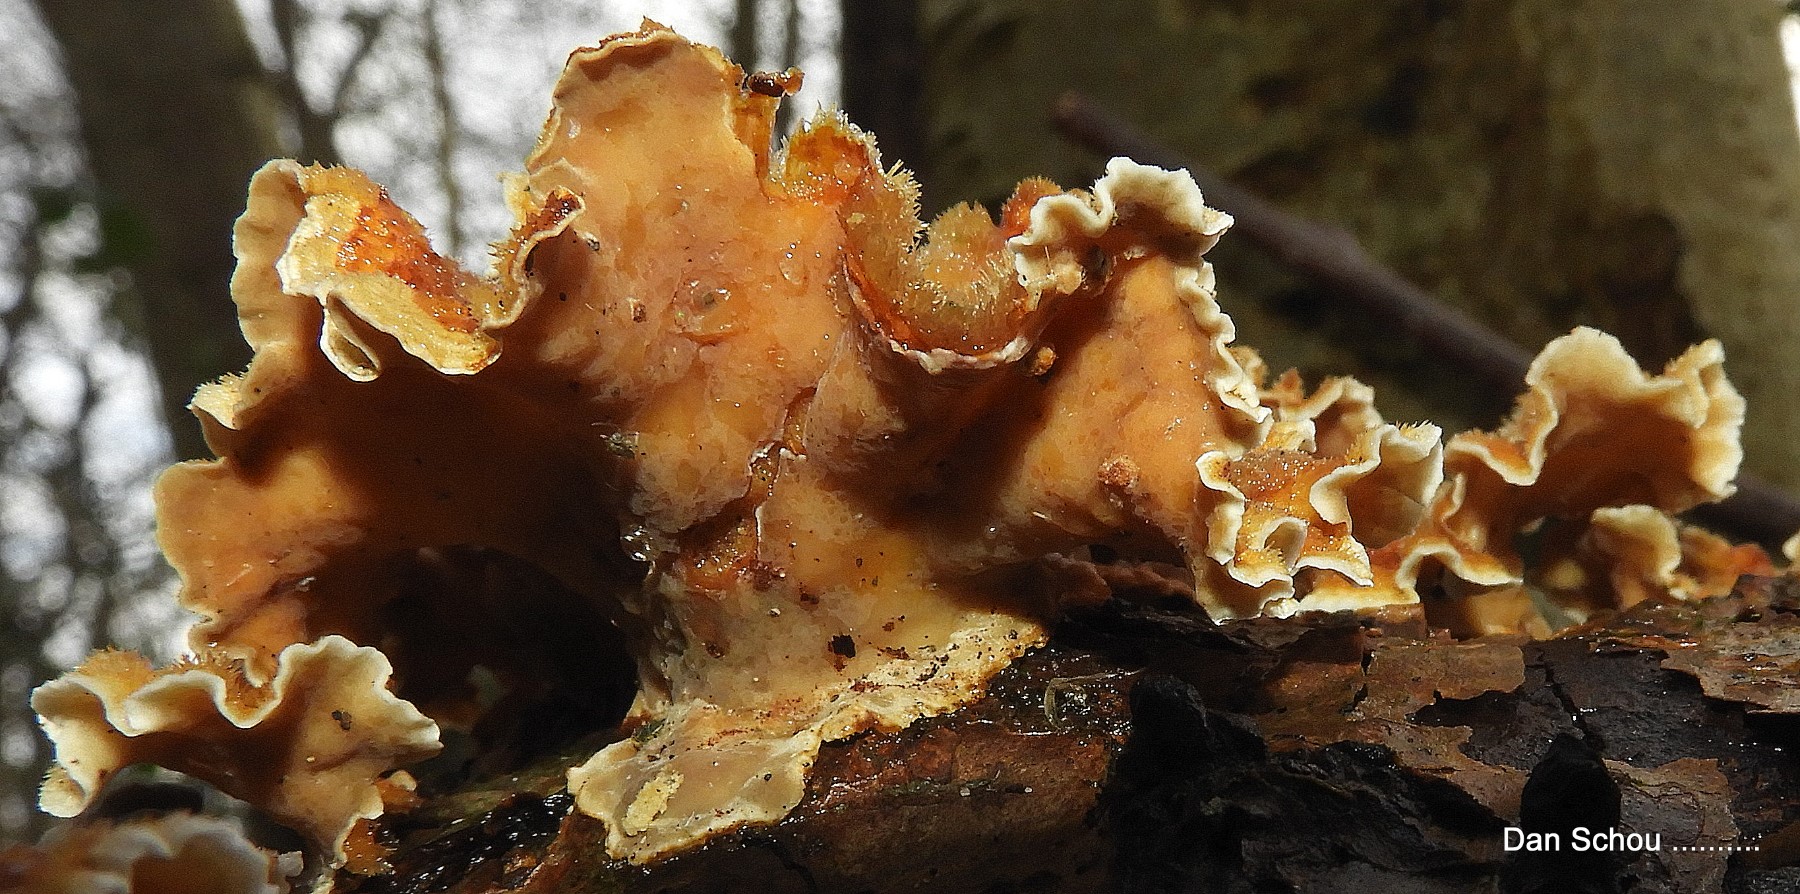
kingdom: Fungi
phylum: Basidiomycota
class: Agaricomycetes
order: Russulales
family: Stereaceae
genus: Stereum
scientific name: Stereum hirsutum
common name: håret lædersvamp
